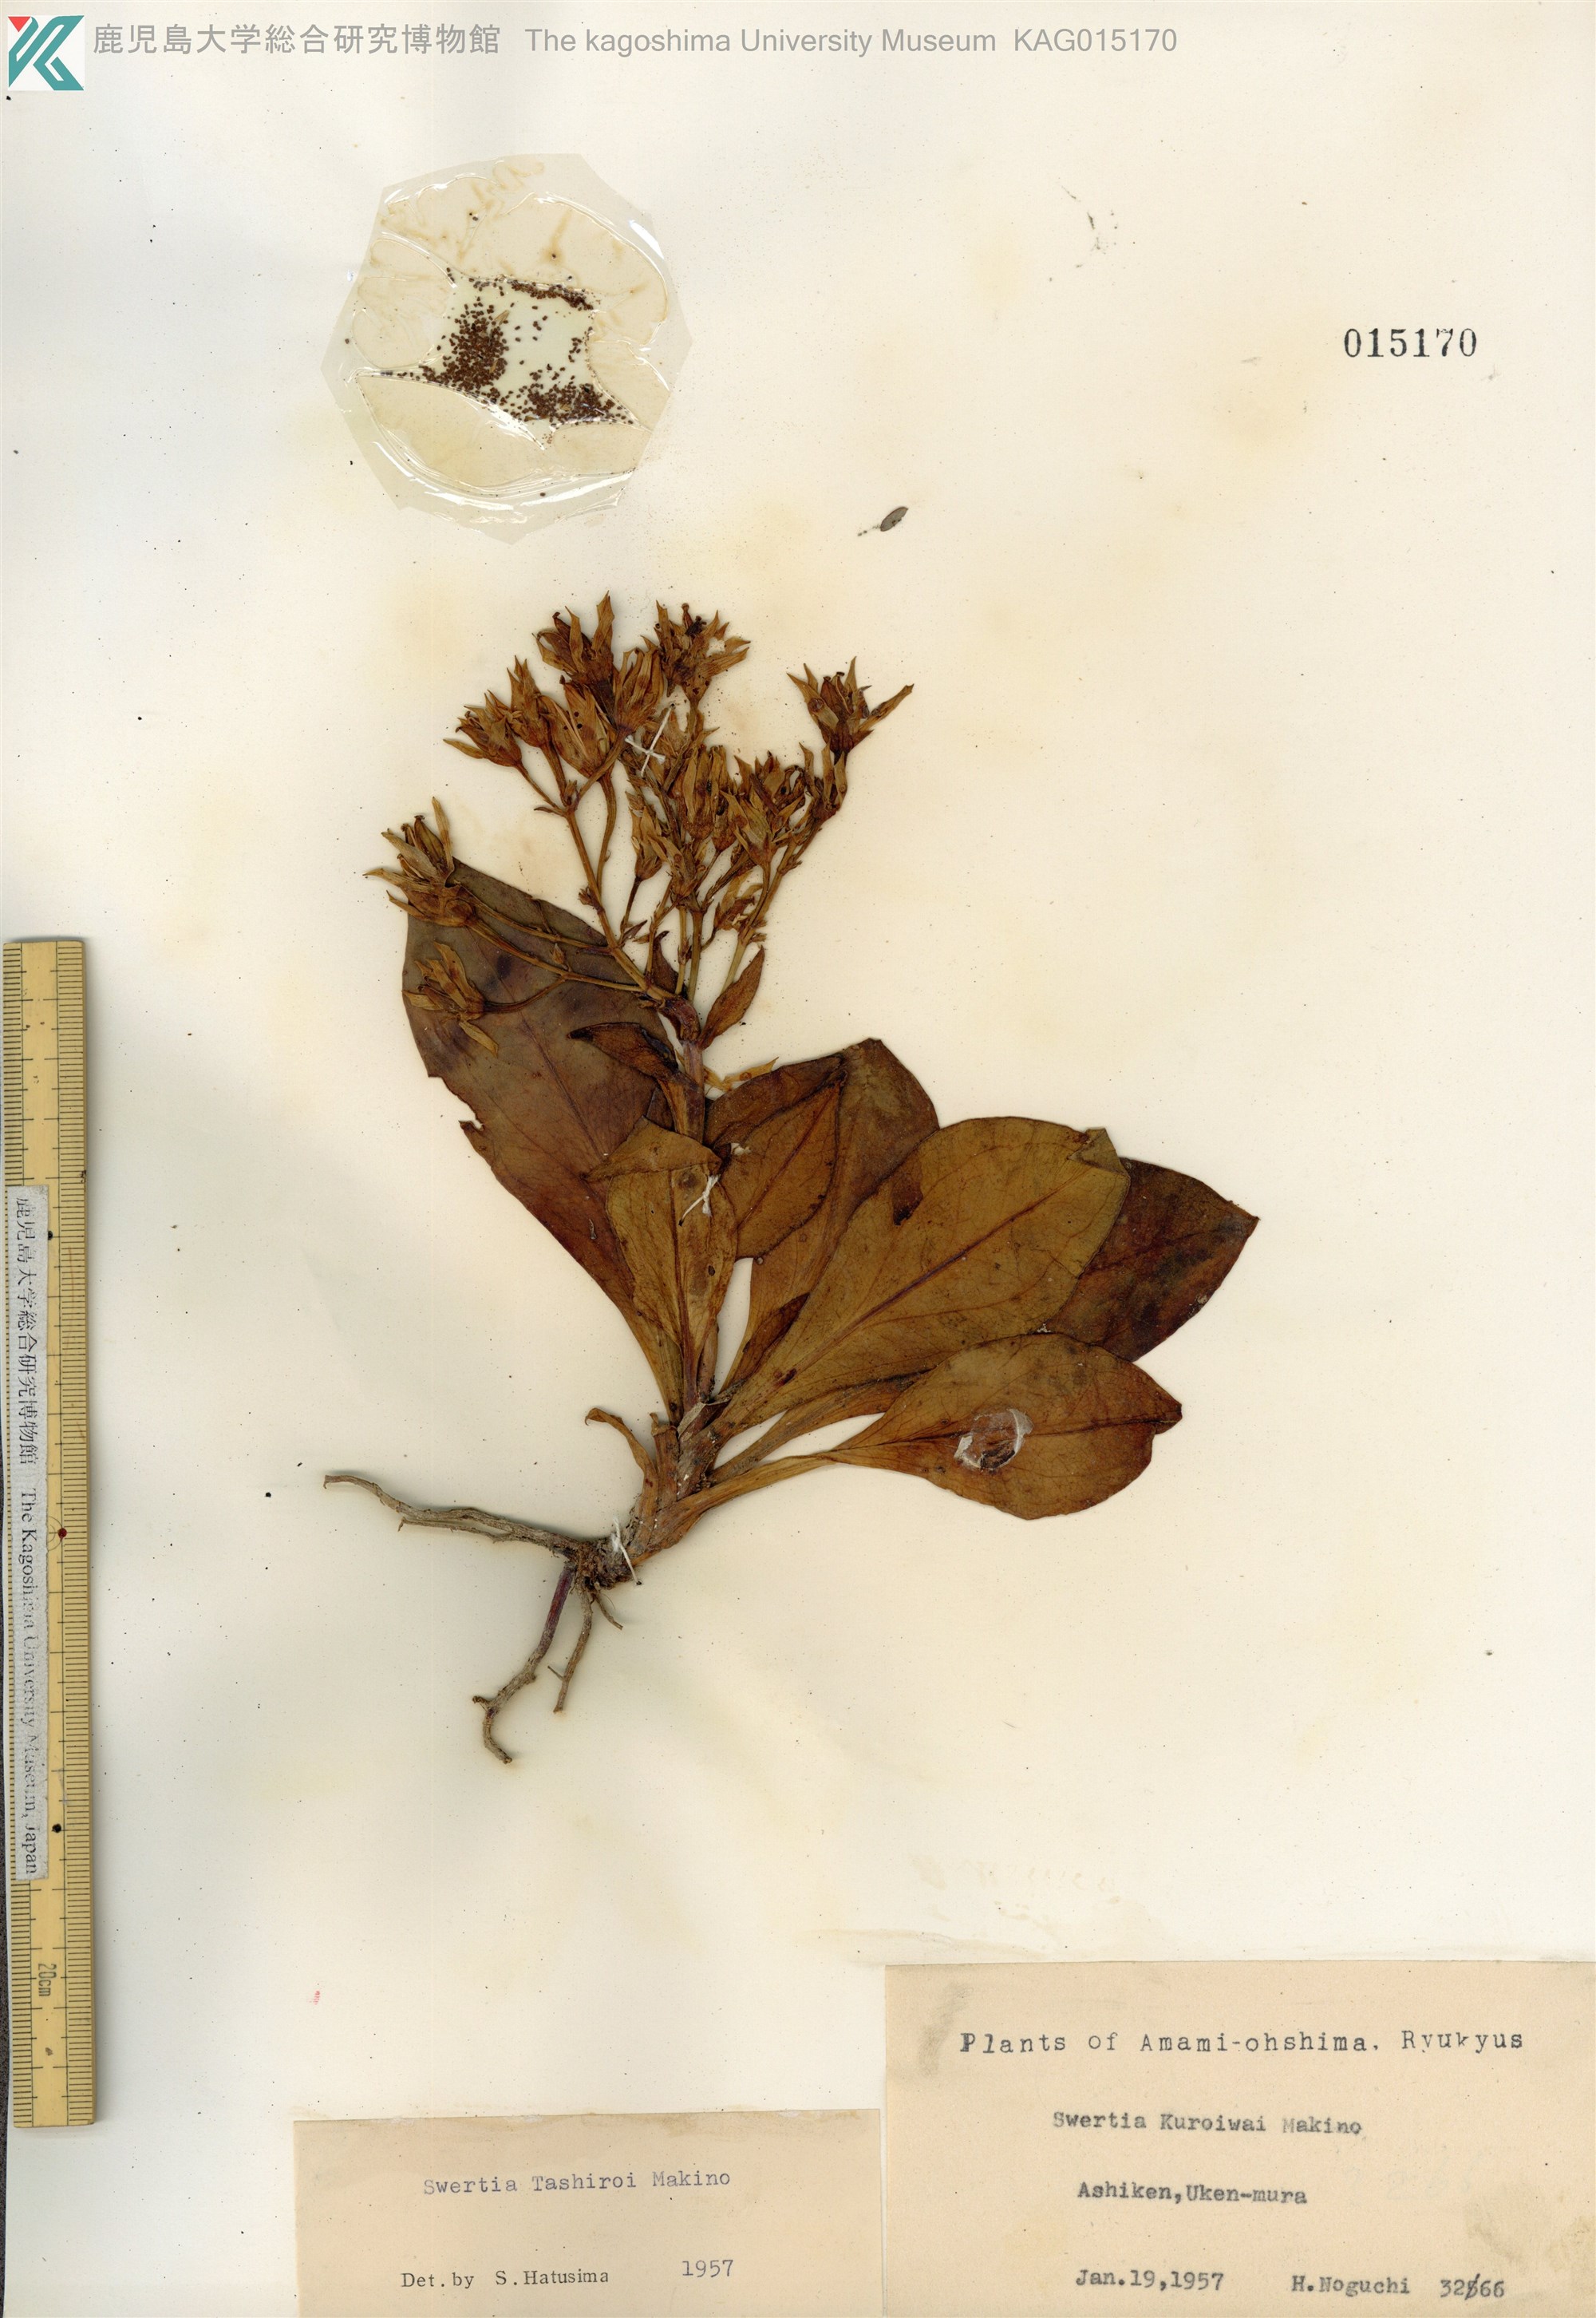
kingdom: Plantae
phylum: Tracheophyta
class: Magnoliopsida
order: Gentianales
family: Gentianaceae
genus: Swertia
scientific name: Swertia tashiroi
